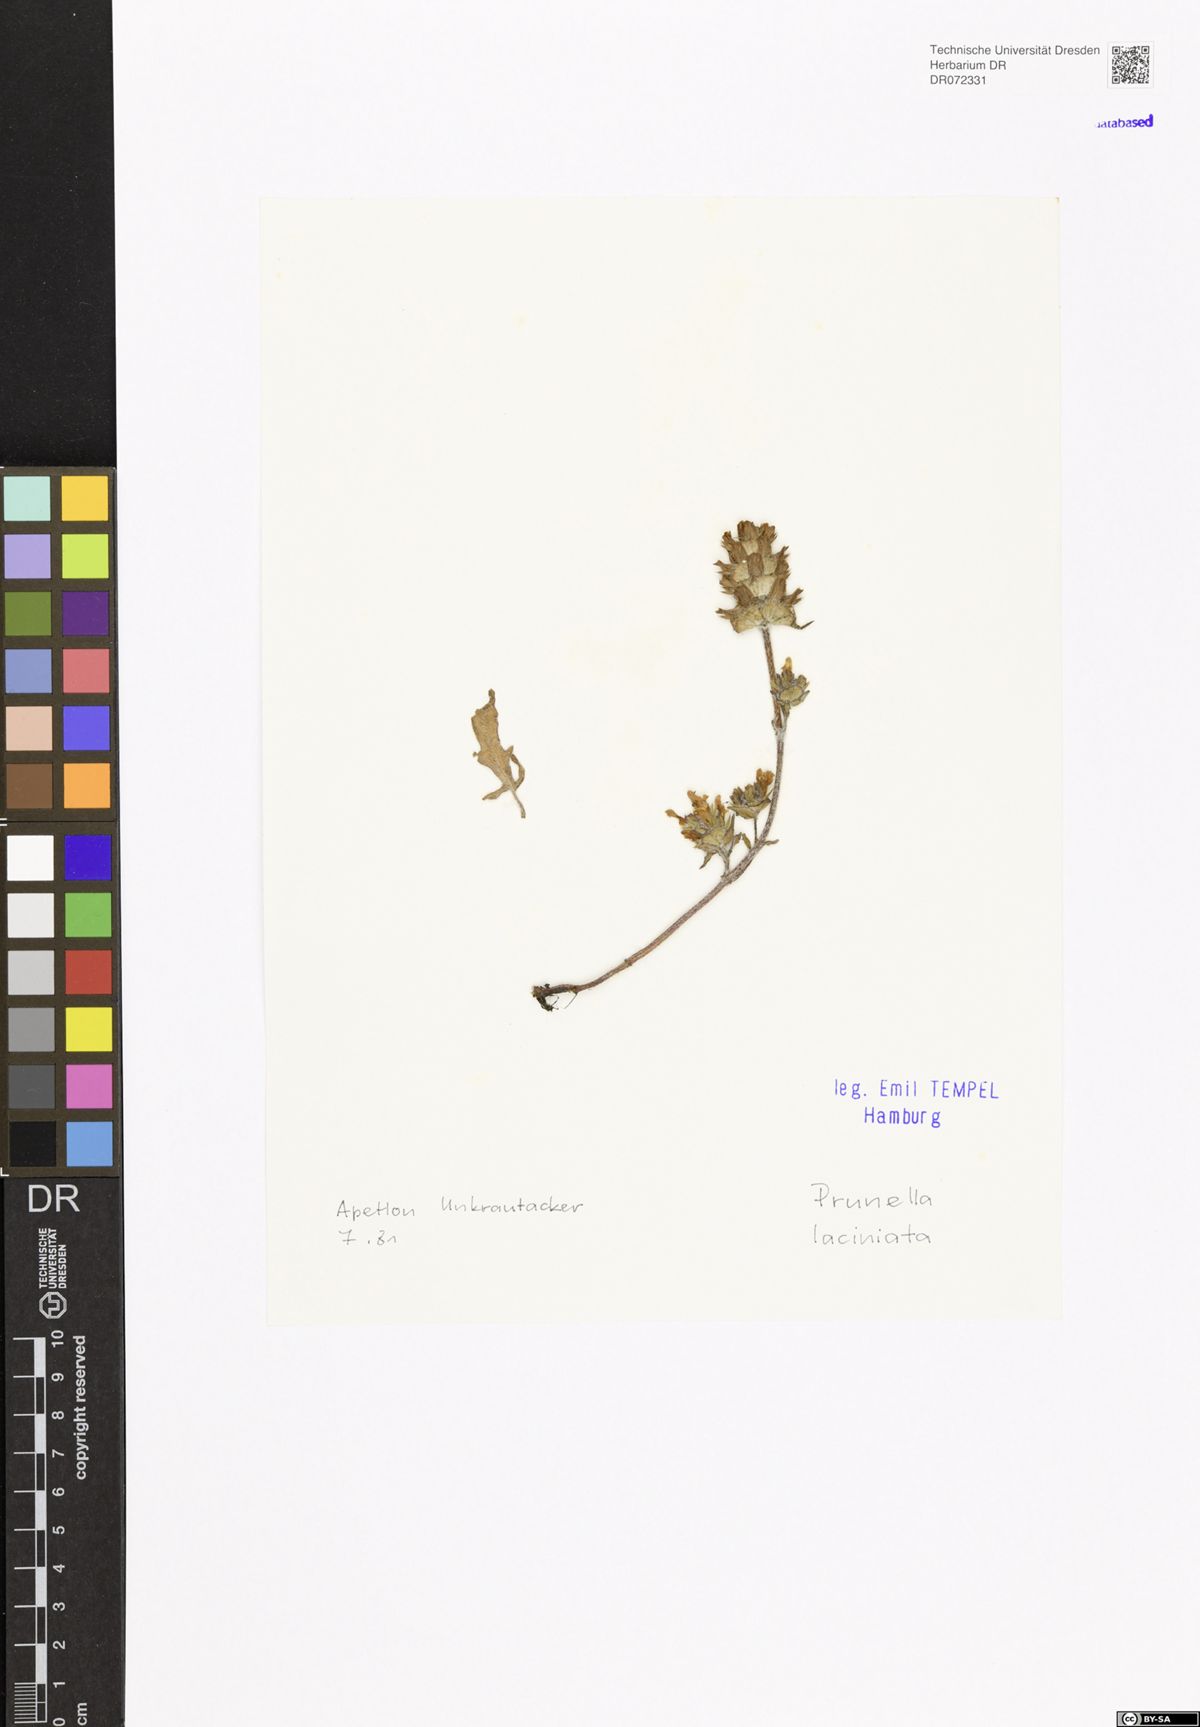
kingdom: Plantae
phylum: Tracheophyta
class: Magnoliopsida
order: Lamiales
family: Lamiaceae
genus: Prunella
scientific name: Prunella laciniata
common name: Cut-leaved selfheal
